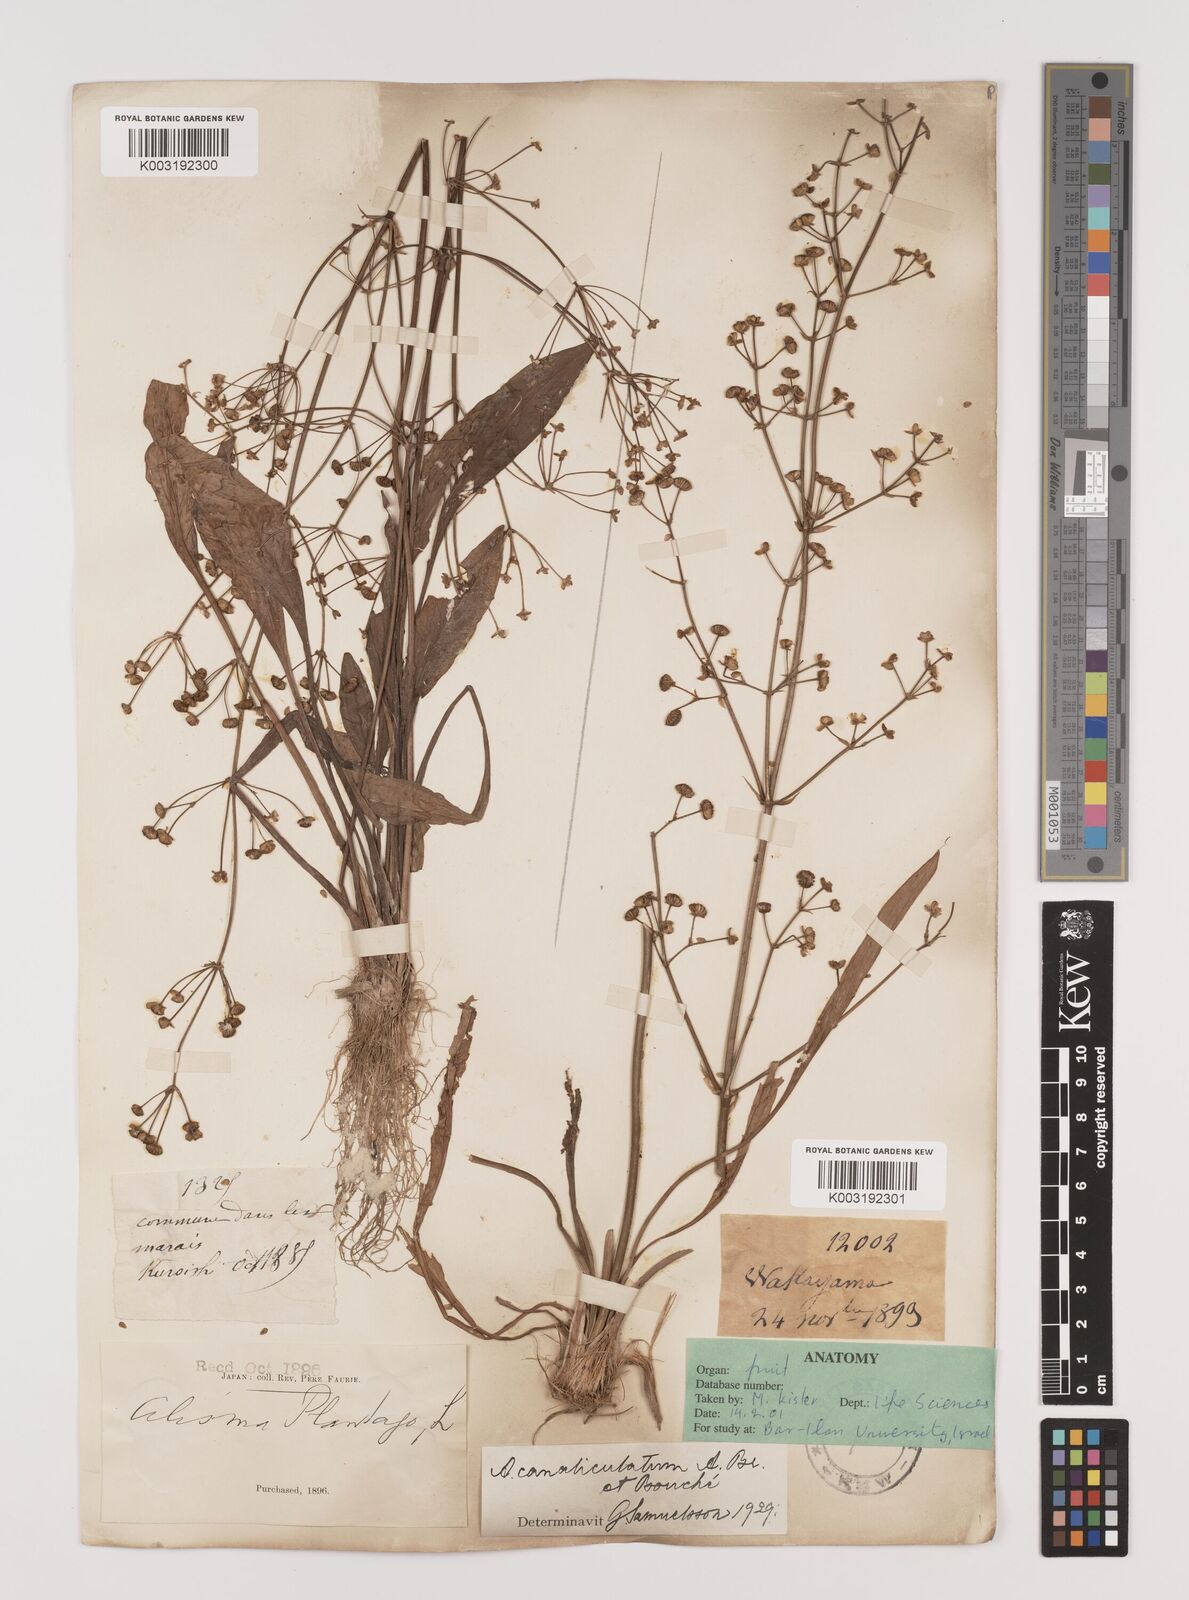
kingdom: Plantae
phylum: Tracheophyta
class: Liliopsida
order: Alismatales
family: Alismataceae
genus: Alisma
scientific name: Alisma canaliculatum
